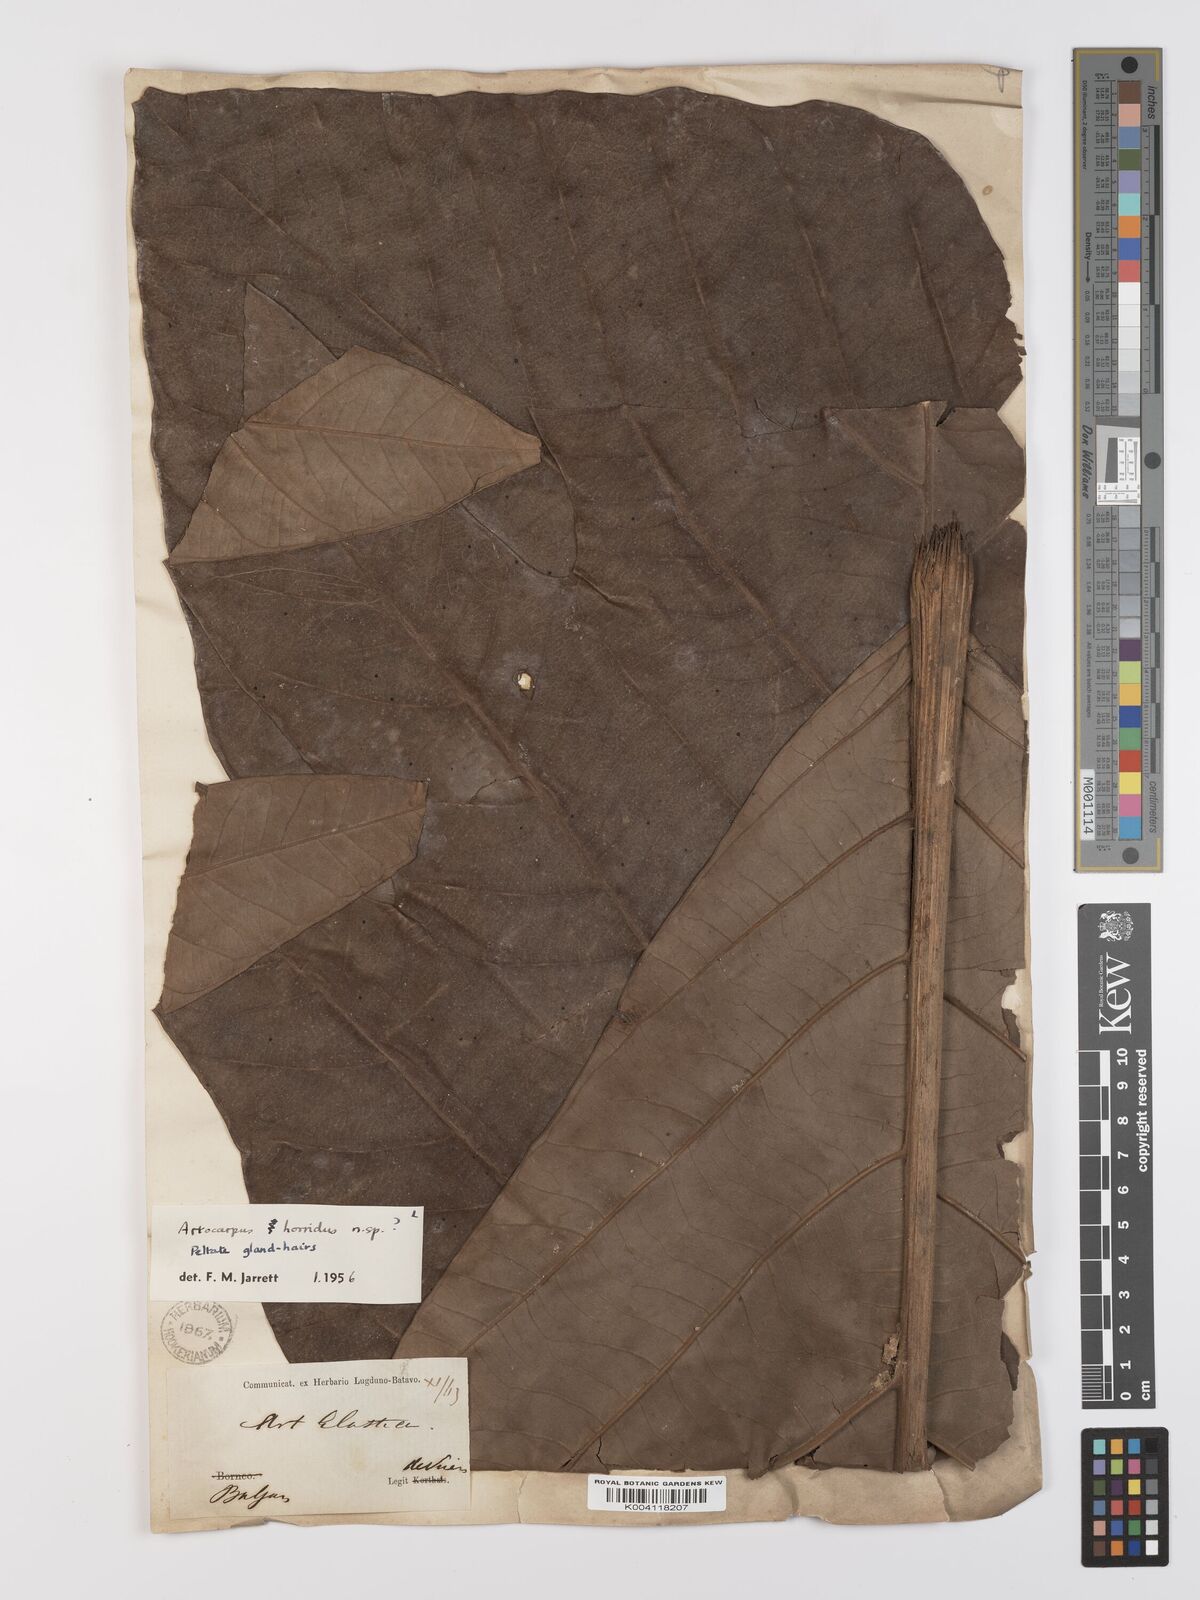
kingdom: Plantae
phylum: Tracheophyta
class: Magnoliopsida
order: Rosales
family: Moraceae
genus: Artocarpus
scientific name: Artocarpus altilis
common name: Breadfruit
